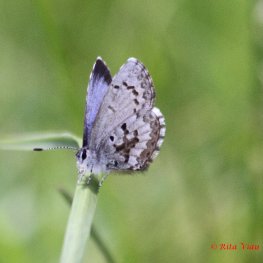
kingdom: Animalia
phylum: Arthropoda
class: Insecta
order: Lepidoptera
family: Lycaenidae
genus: Celastrina
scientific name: Celastrina lucia
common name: Northern Spring Azure
